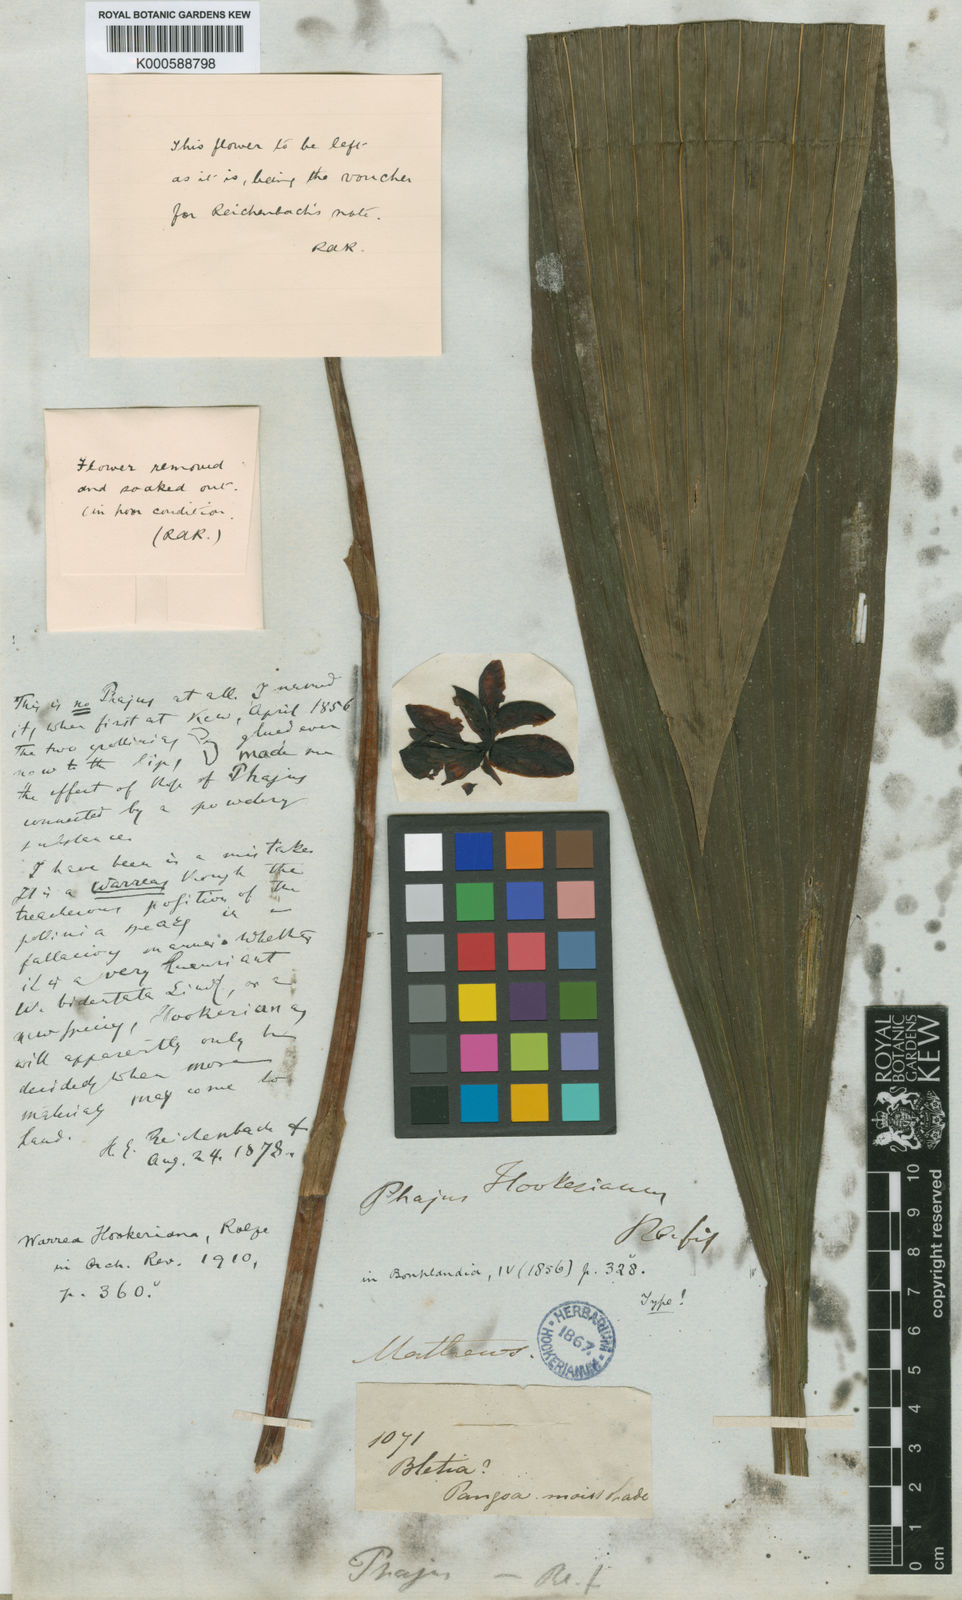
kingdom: Plantae
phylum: Tracheophyta
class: Liliopsida
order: Asparagales
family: Orchidaceae
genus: Warrea
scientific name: Warrea hookeriana
